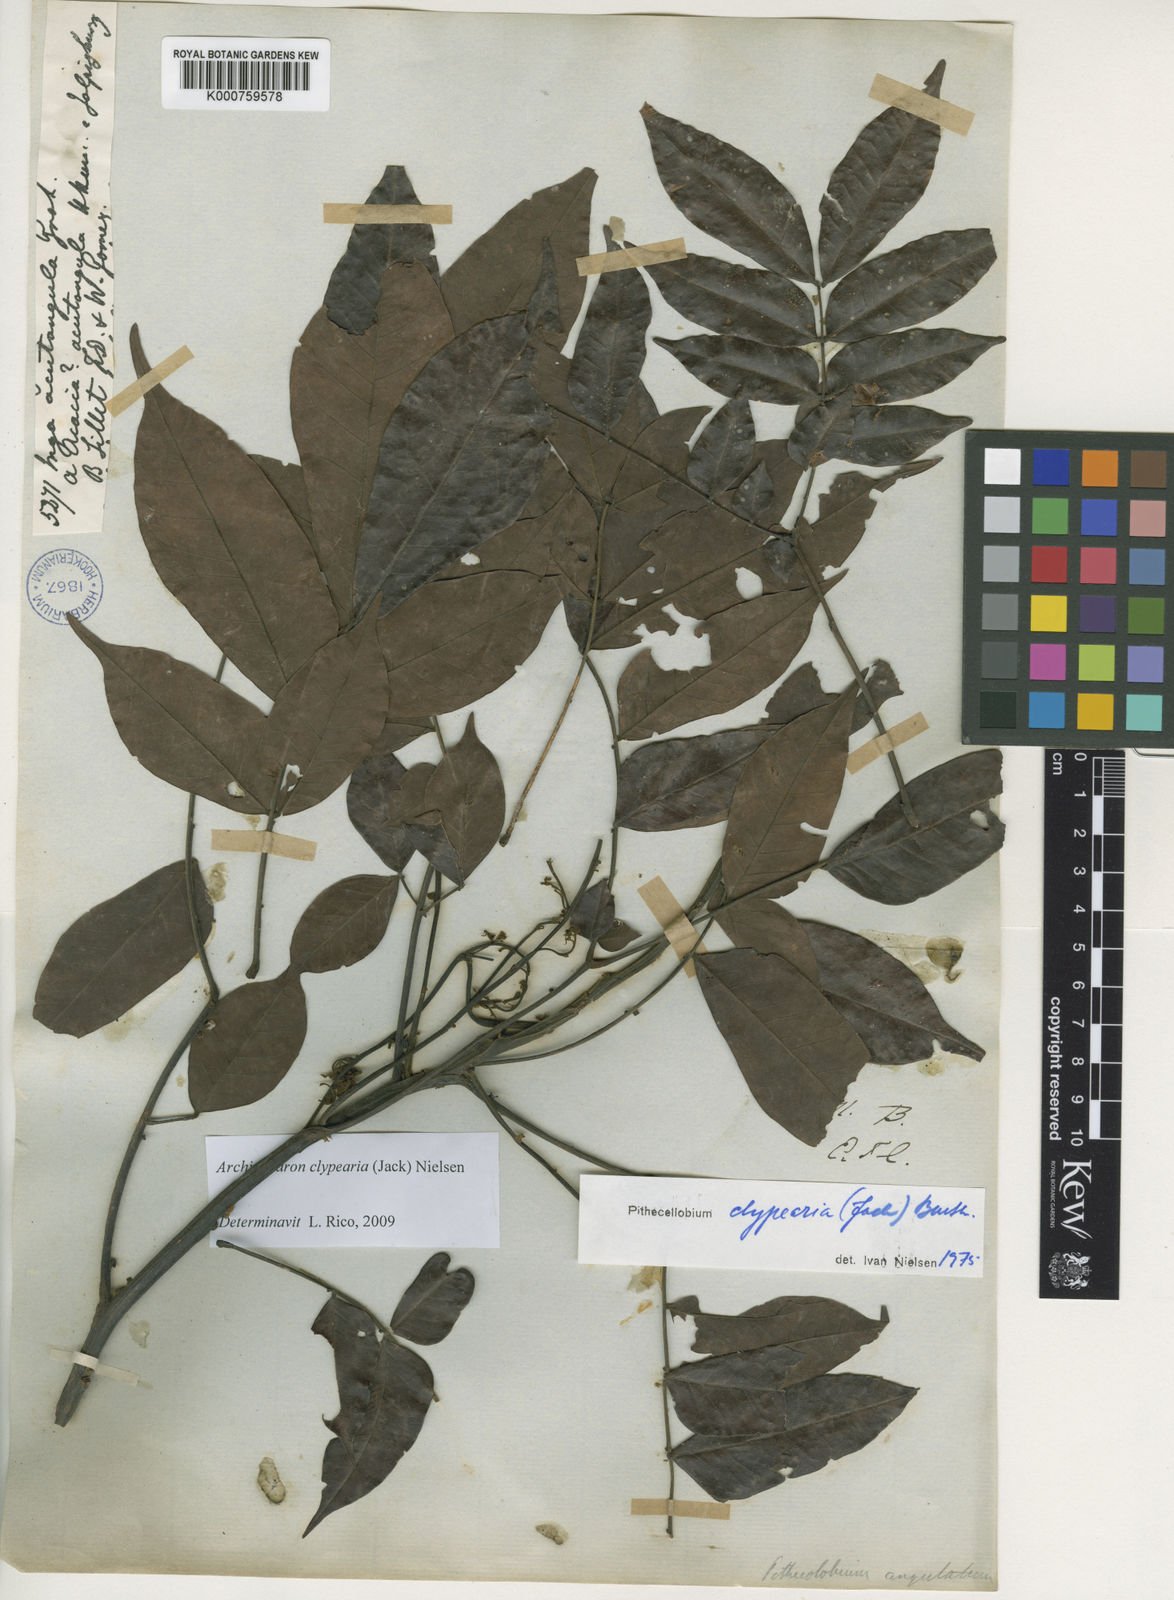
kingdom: Plantae
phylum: Tracheophyta
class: Magnoliopsida
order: Fabales
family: Fabaceae
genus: Archidendron
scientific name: Archidendron clypearia
